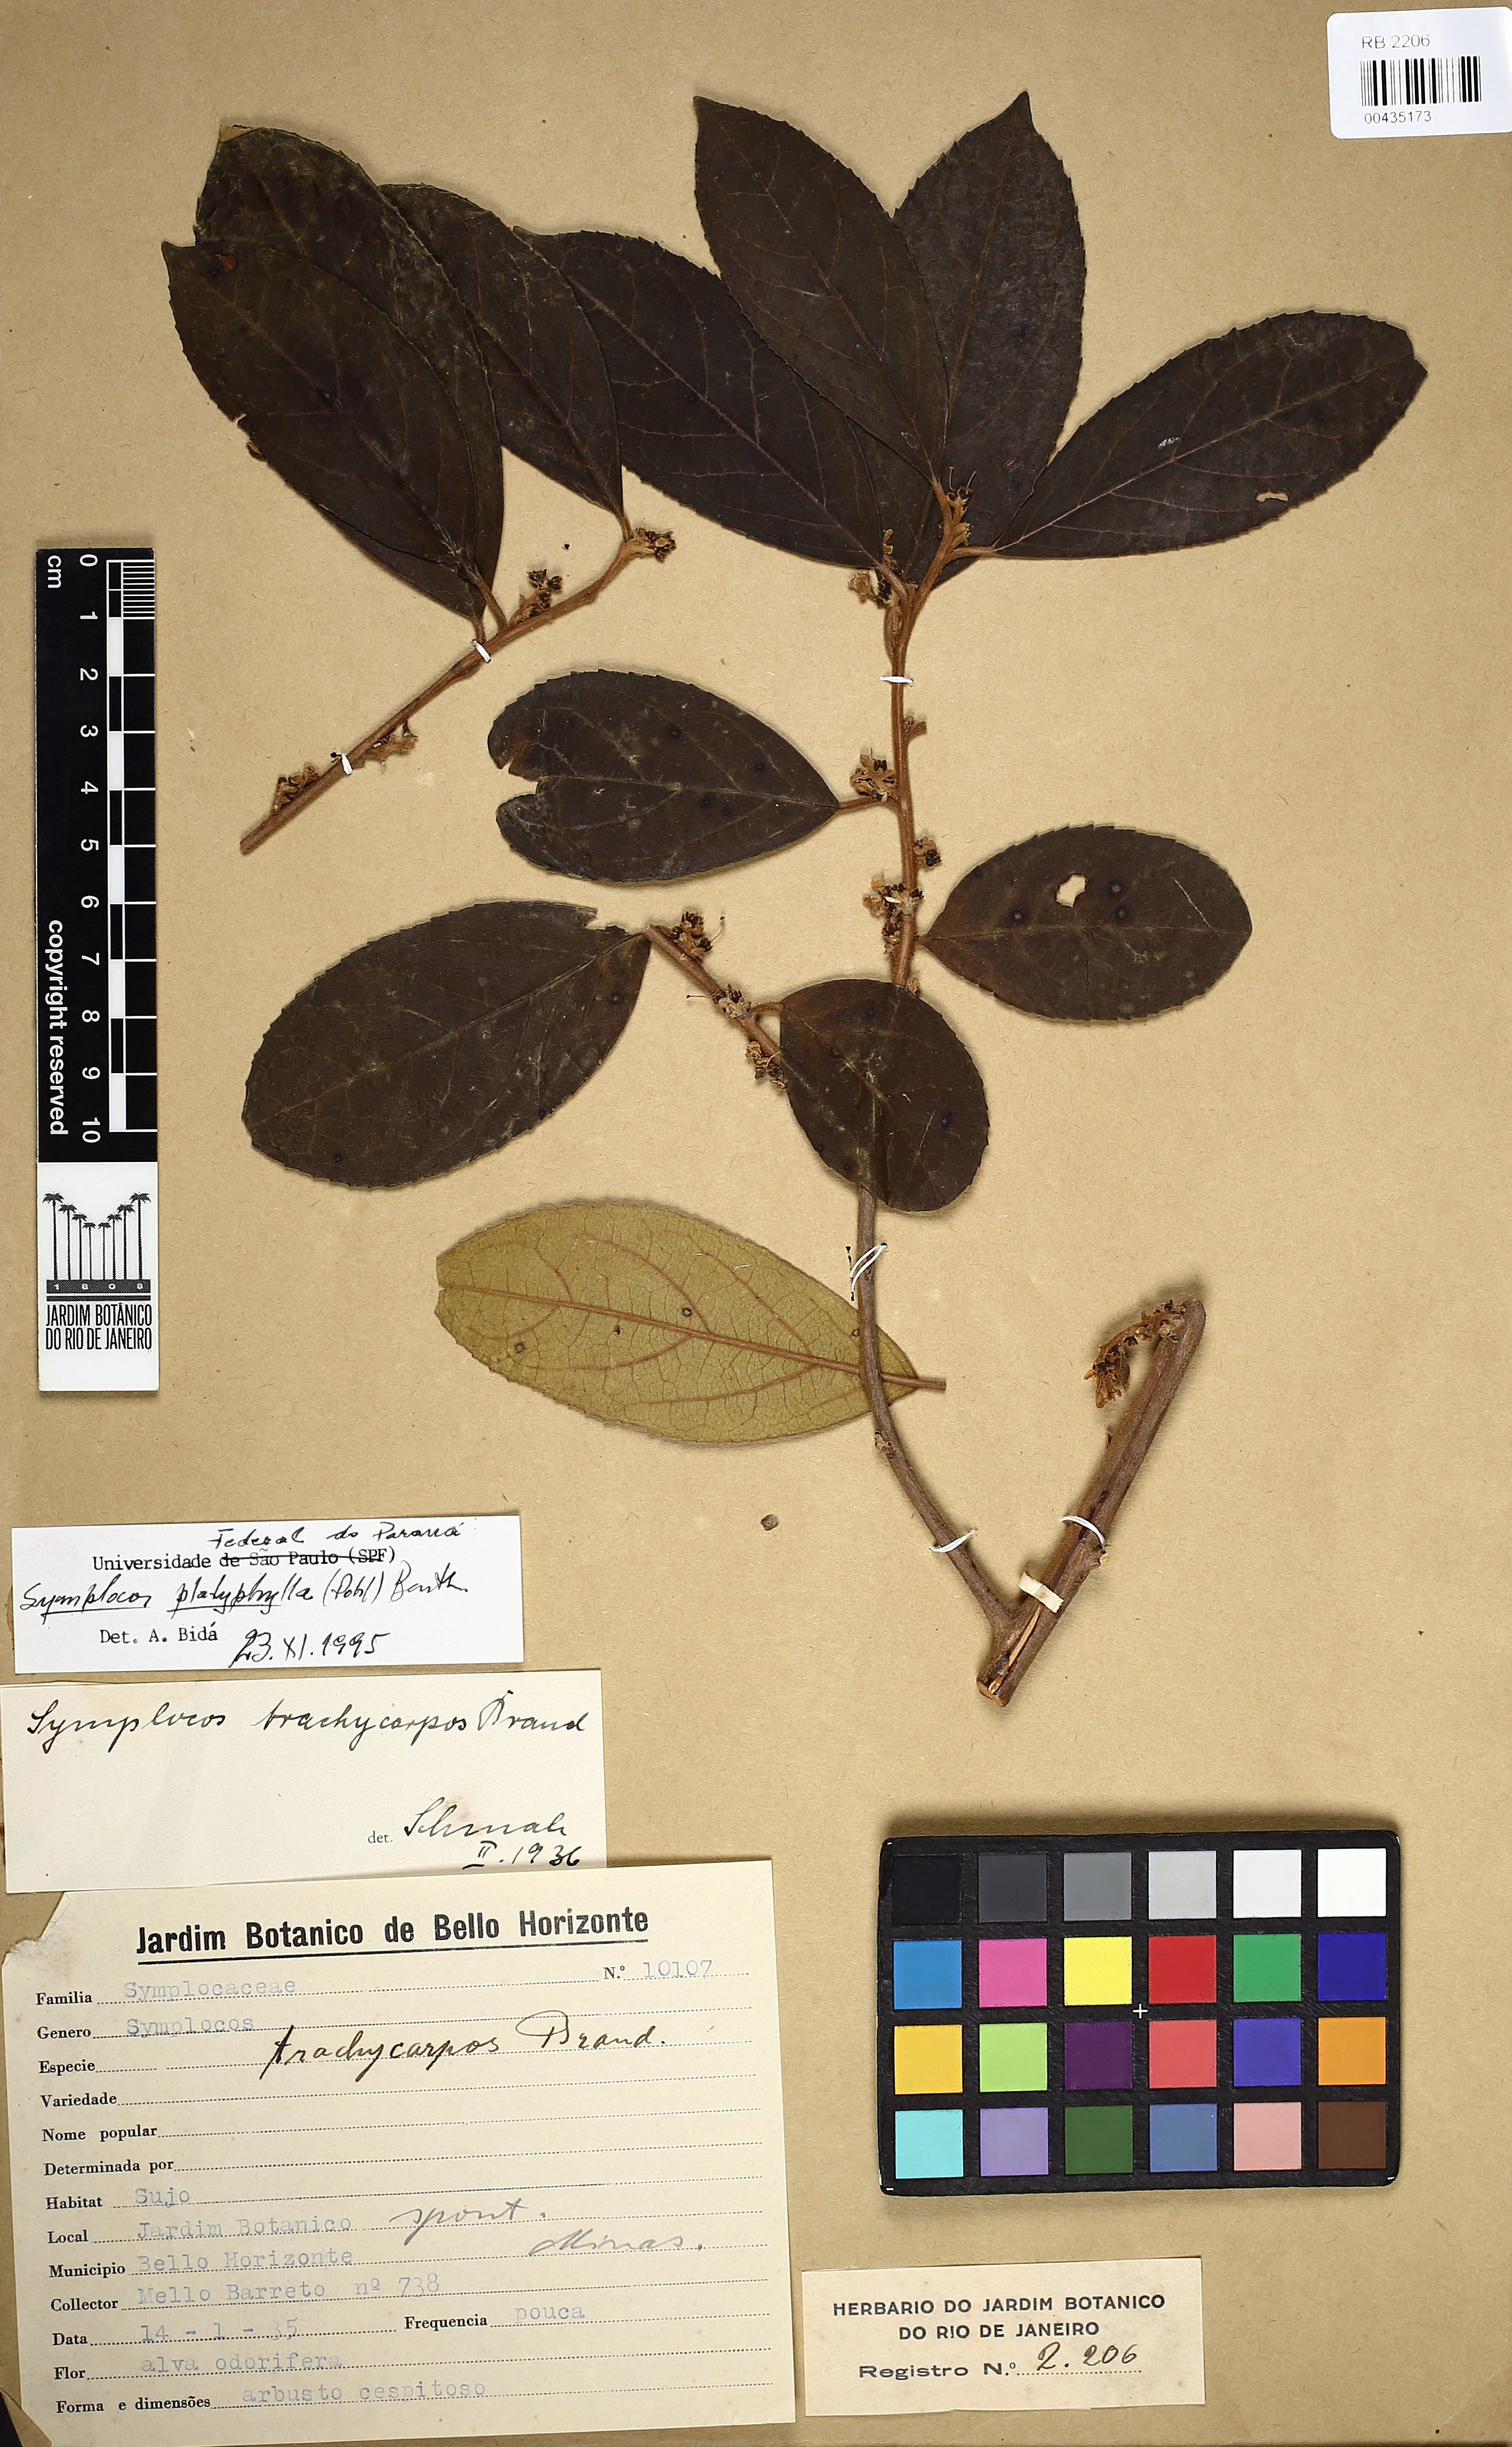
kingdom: Plantae
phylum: Tracheophyta
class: Magnoliopsida
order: Ericales
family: Symplocaceae
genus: Symplocos
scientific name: Symplocos platyphylla
